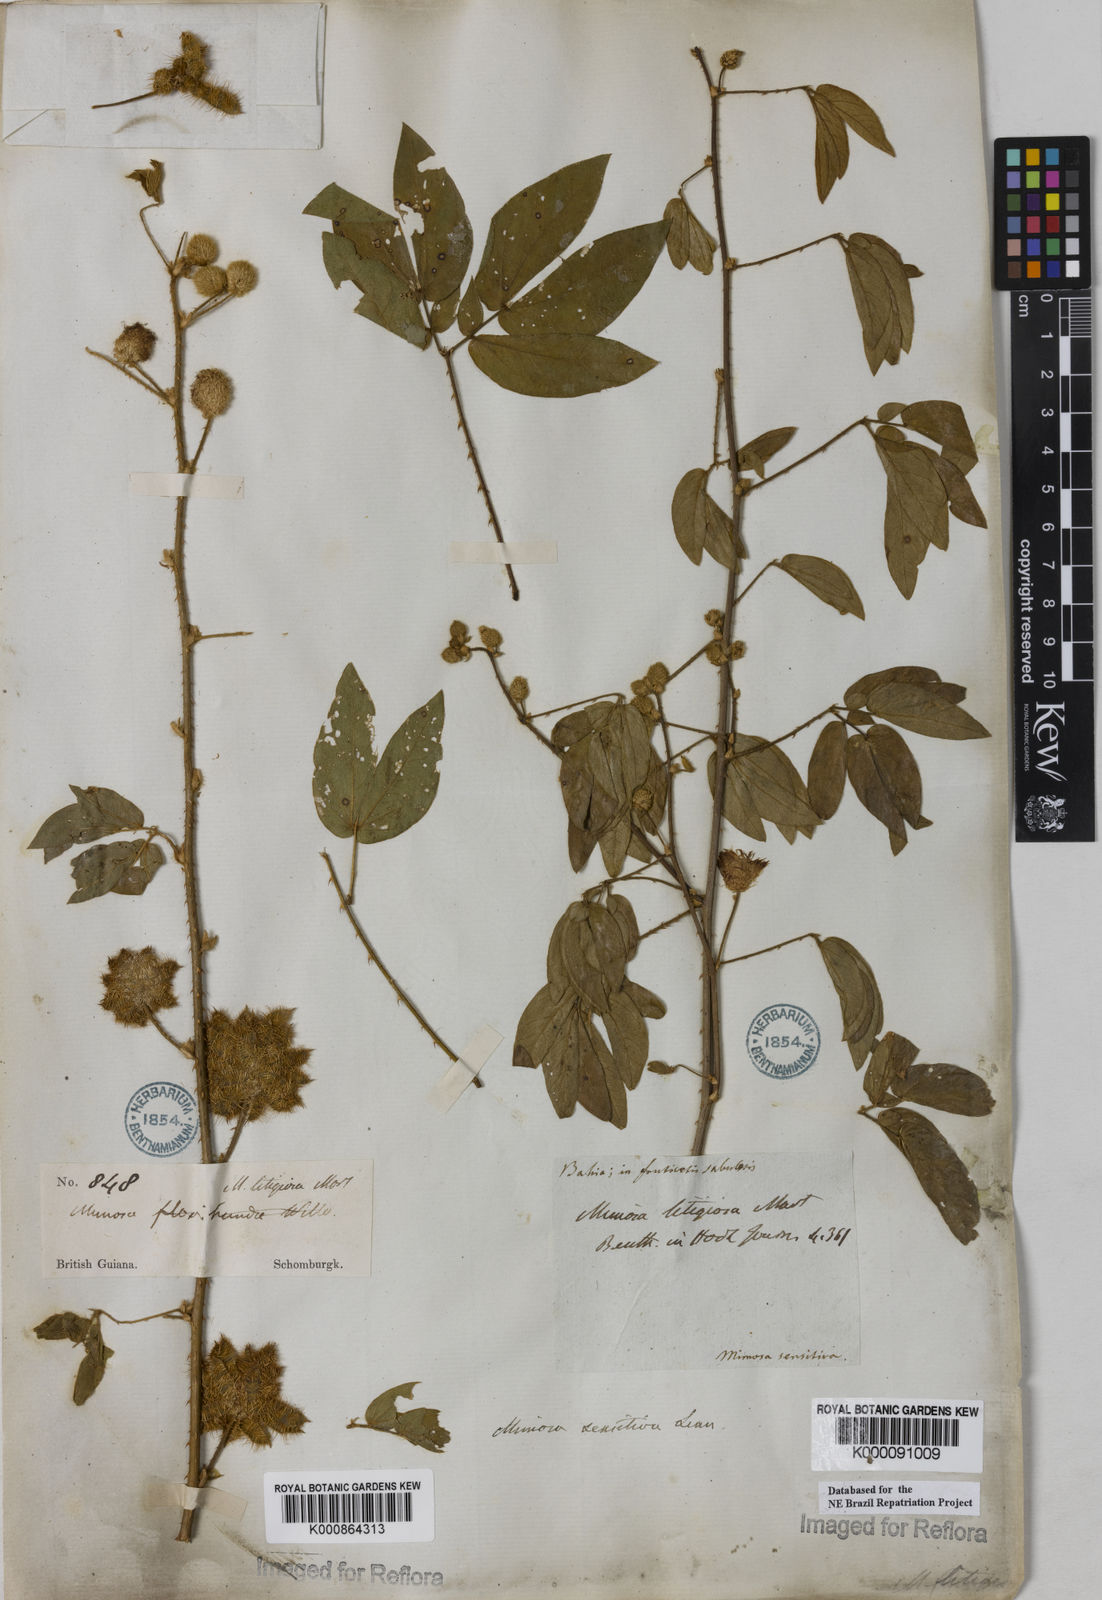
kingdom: Plantae
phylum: Tracheophyta
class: Magnoliopsida
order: Fabales
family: Fabaceae
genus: Mimosa
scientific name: Mimosa sensitiva
